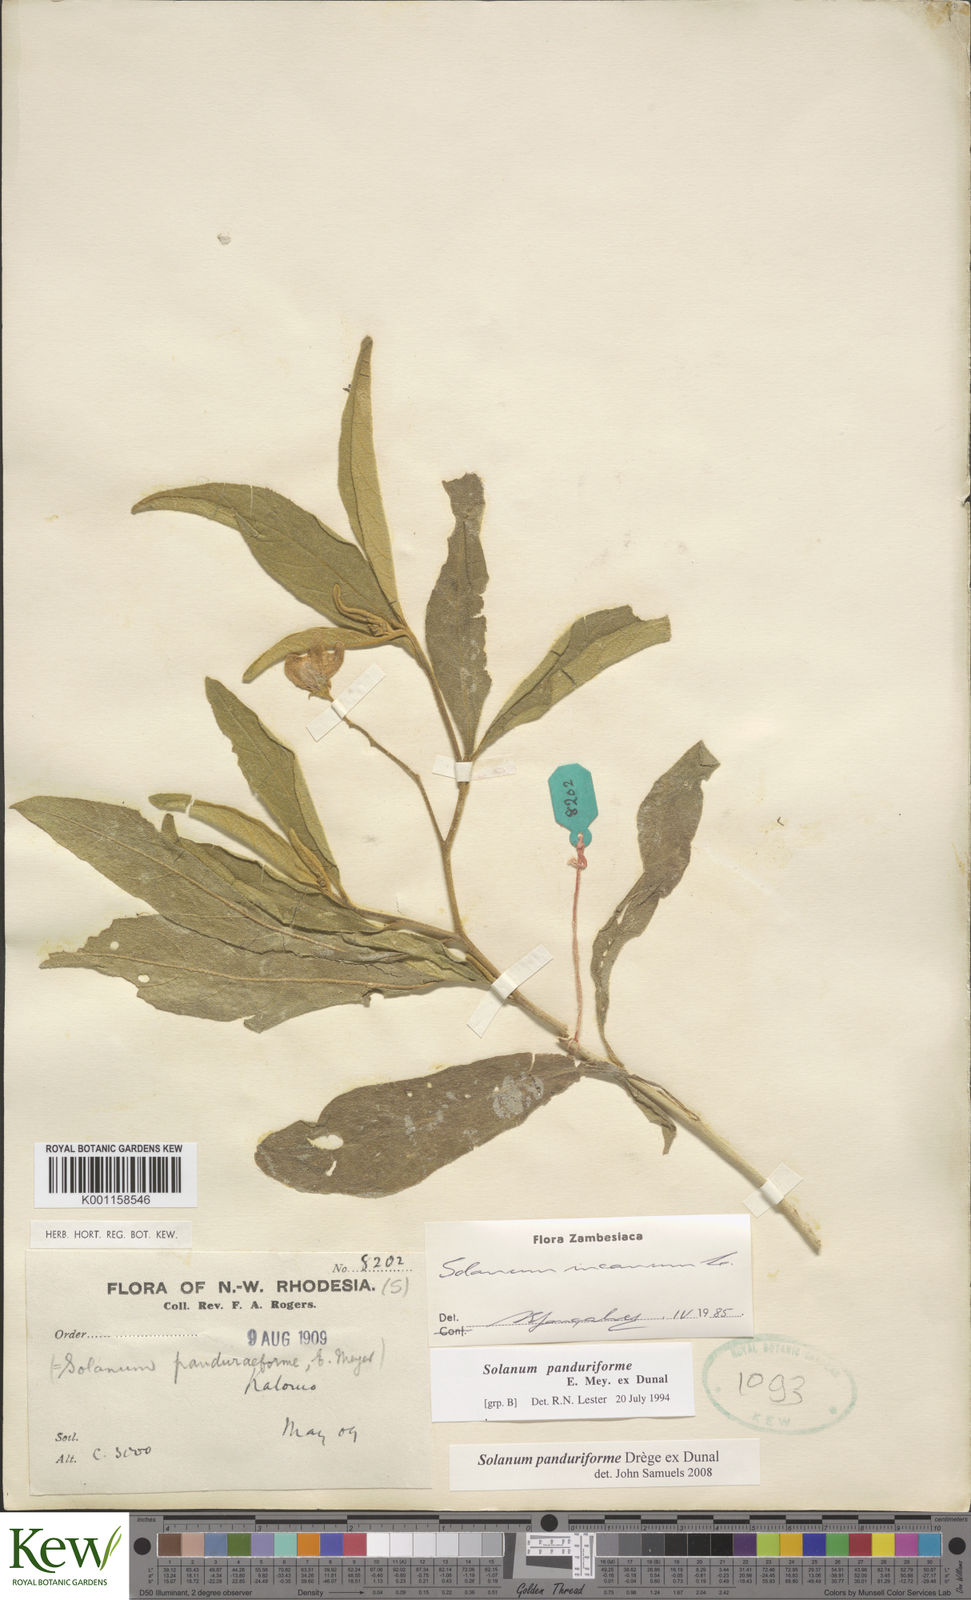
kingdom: Plantae
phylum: Tracheophyta
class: Magnoliopsida
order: Solanales
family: Solanaceae
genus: Solanum
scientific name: Solanum campylacanthum
